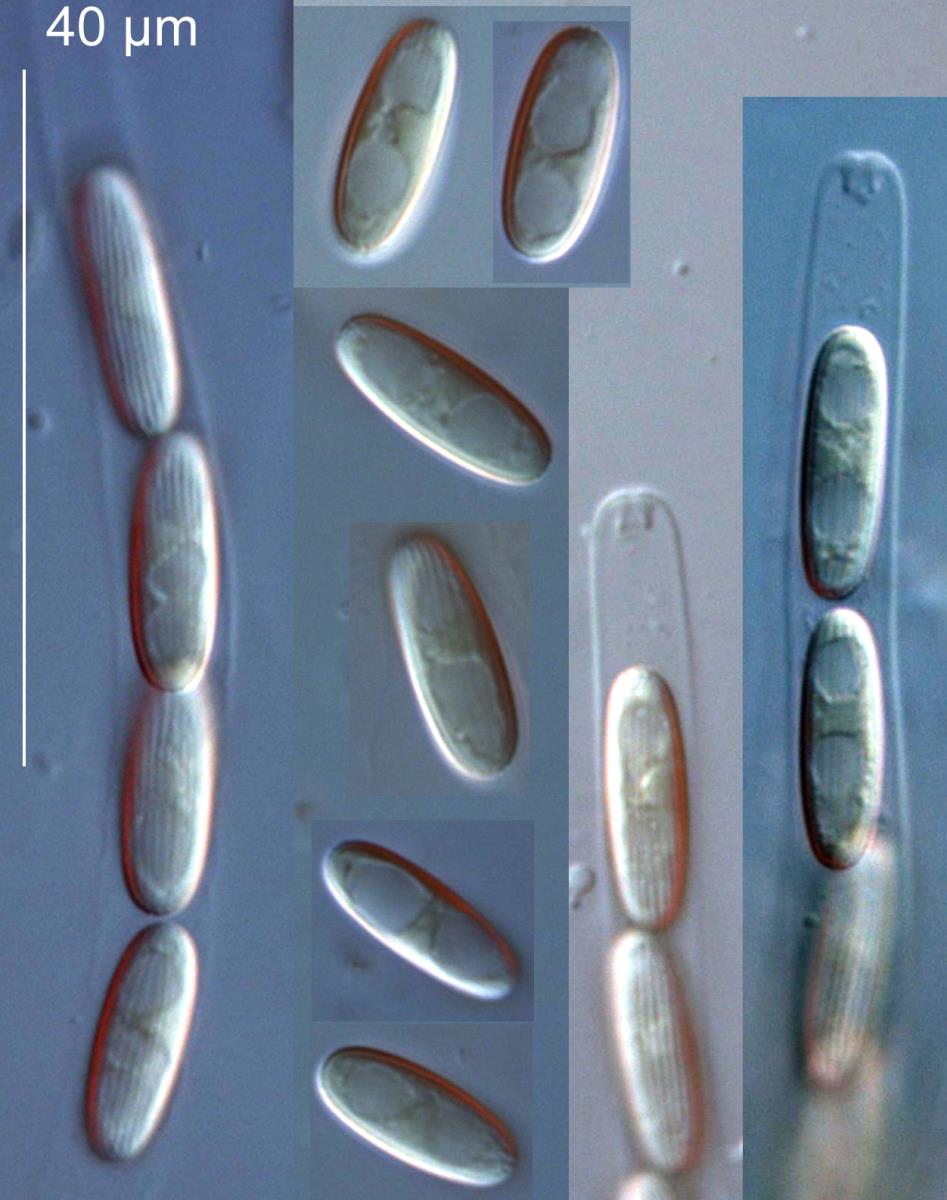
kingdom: Fungi
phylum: Ascomycota
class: Sordariomycetes
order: Phomatosporales
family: Phomatosporaceae
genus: Phomatospora
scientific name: Phomatospora arenaria
